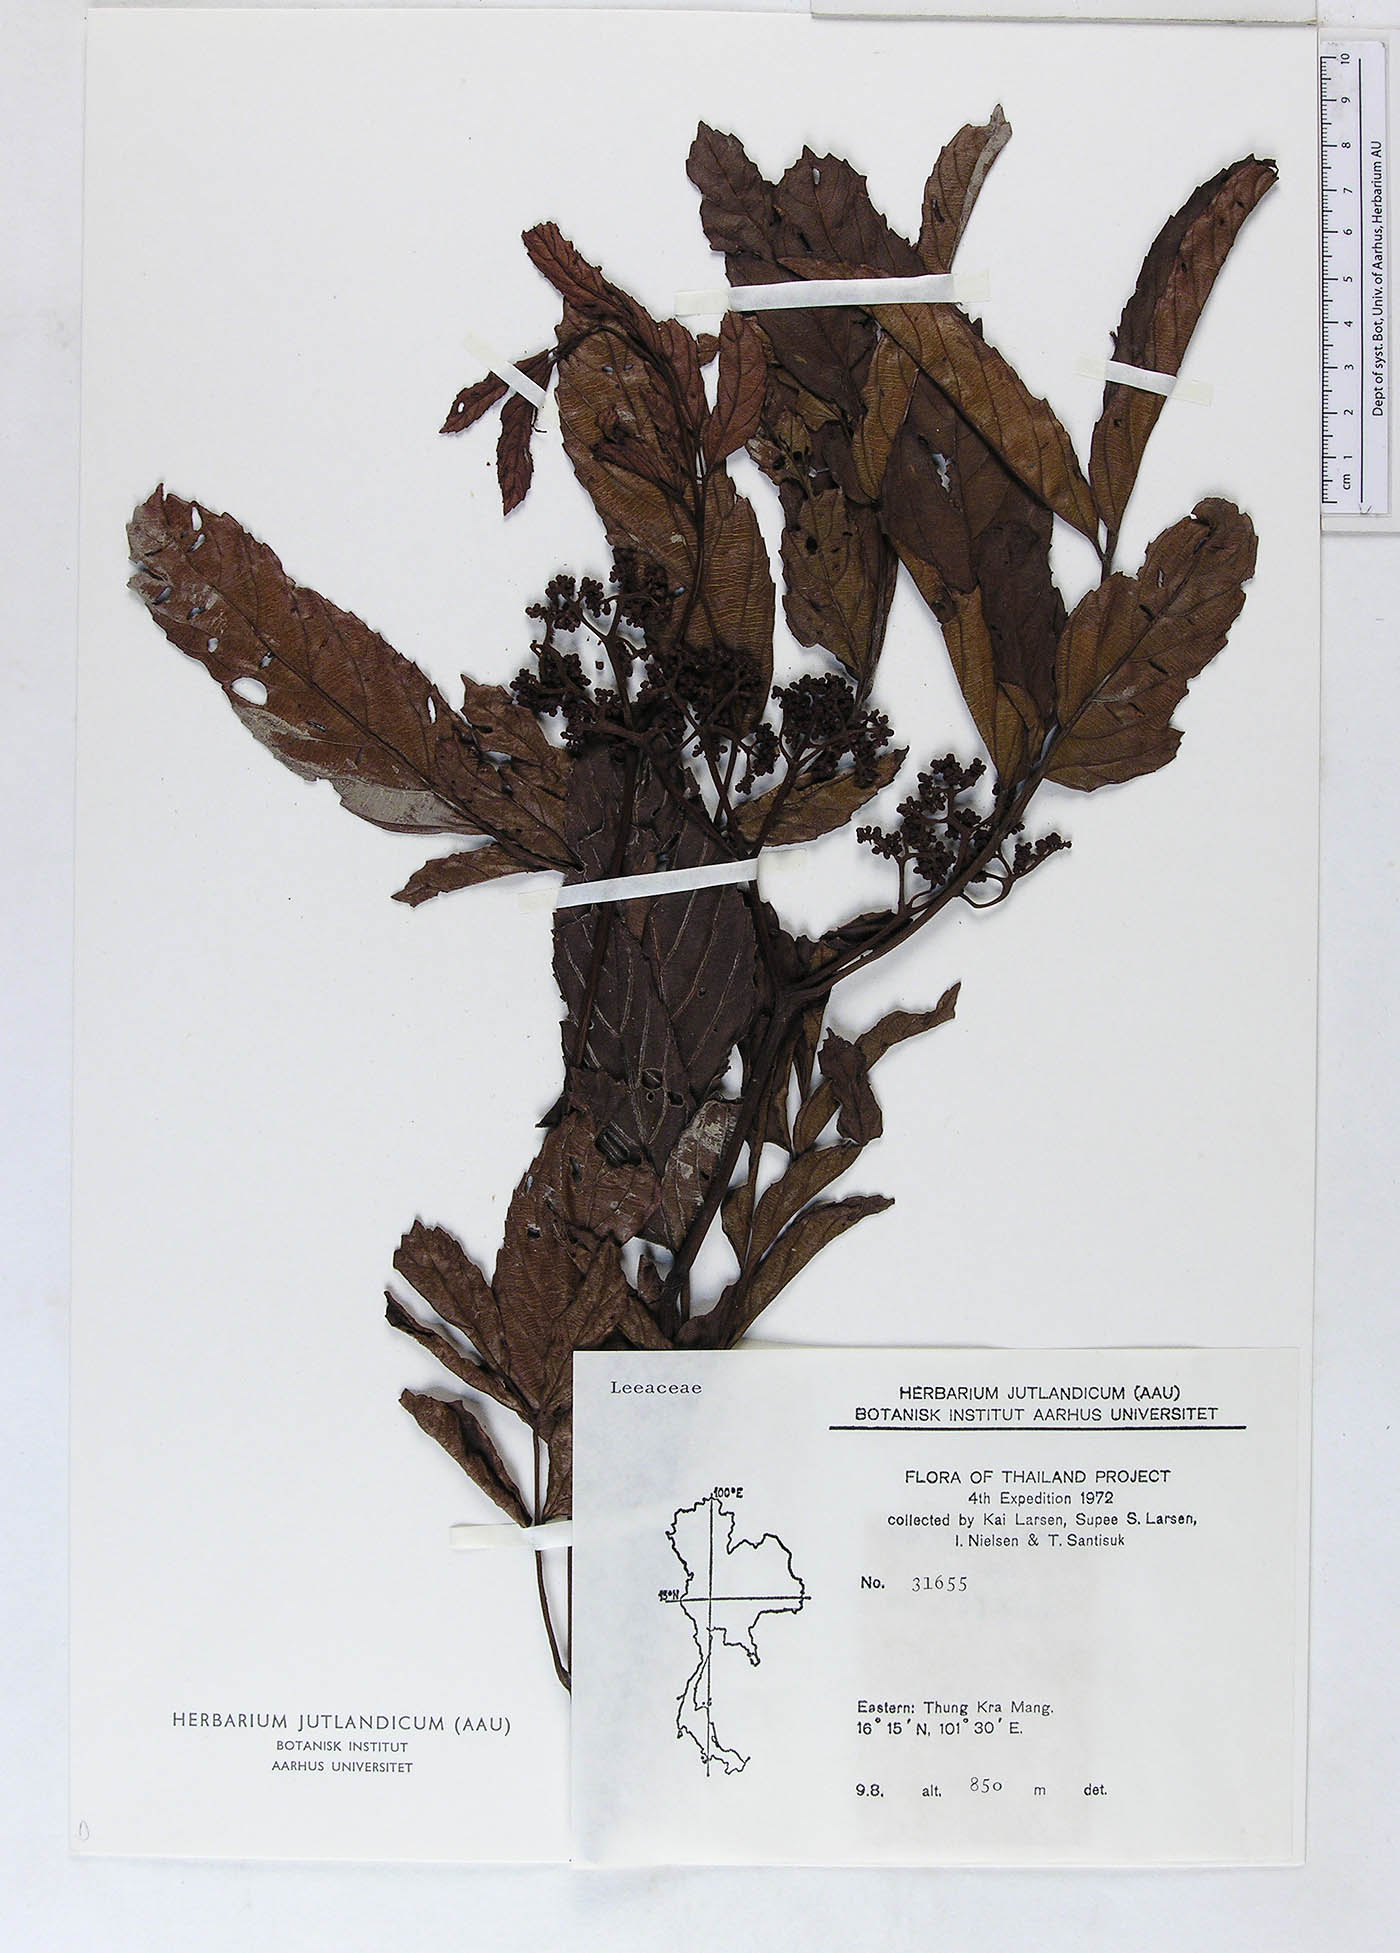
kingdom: Plantae
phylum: Tracheophyta
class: Magnoliopsida
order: Vitales
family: Vitaceae
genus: Leea
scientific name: Leea guineensis
